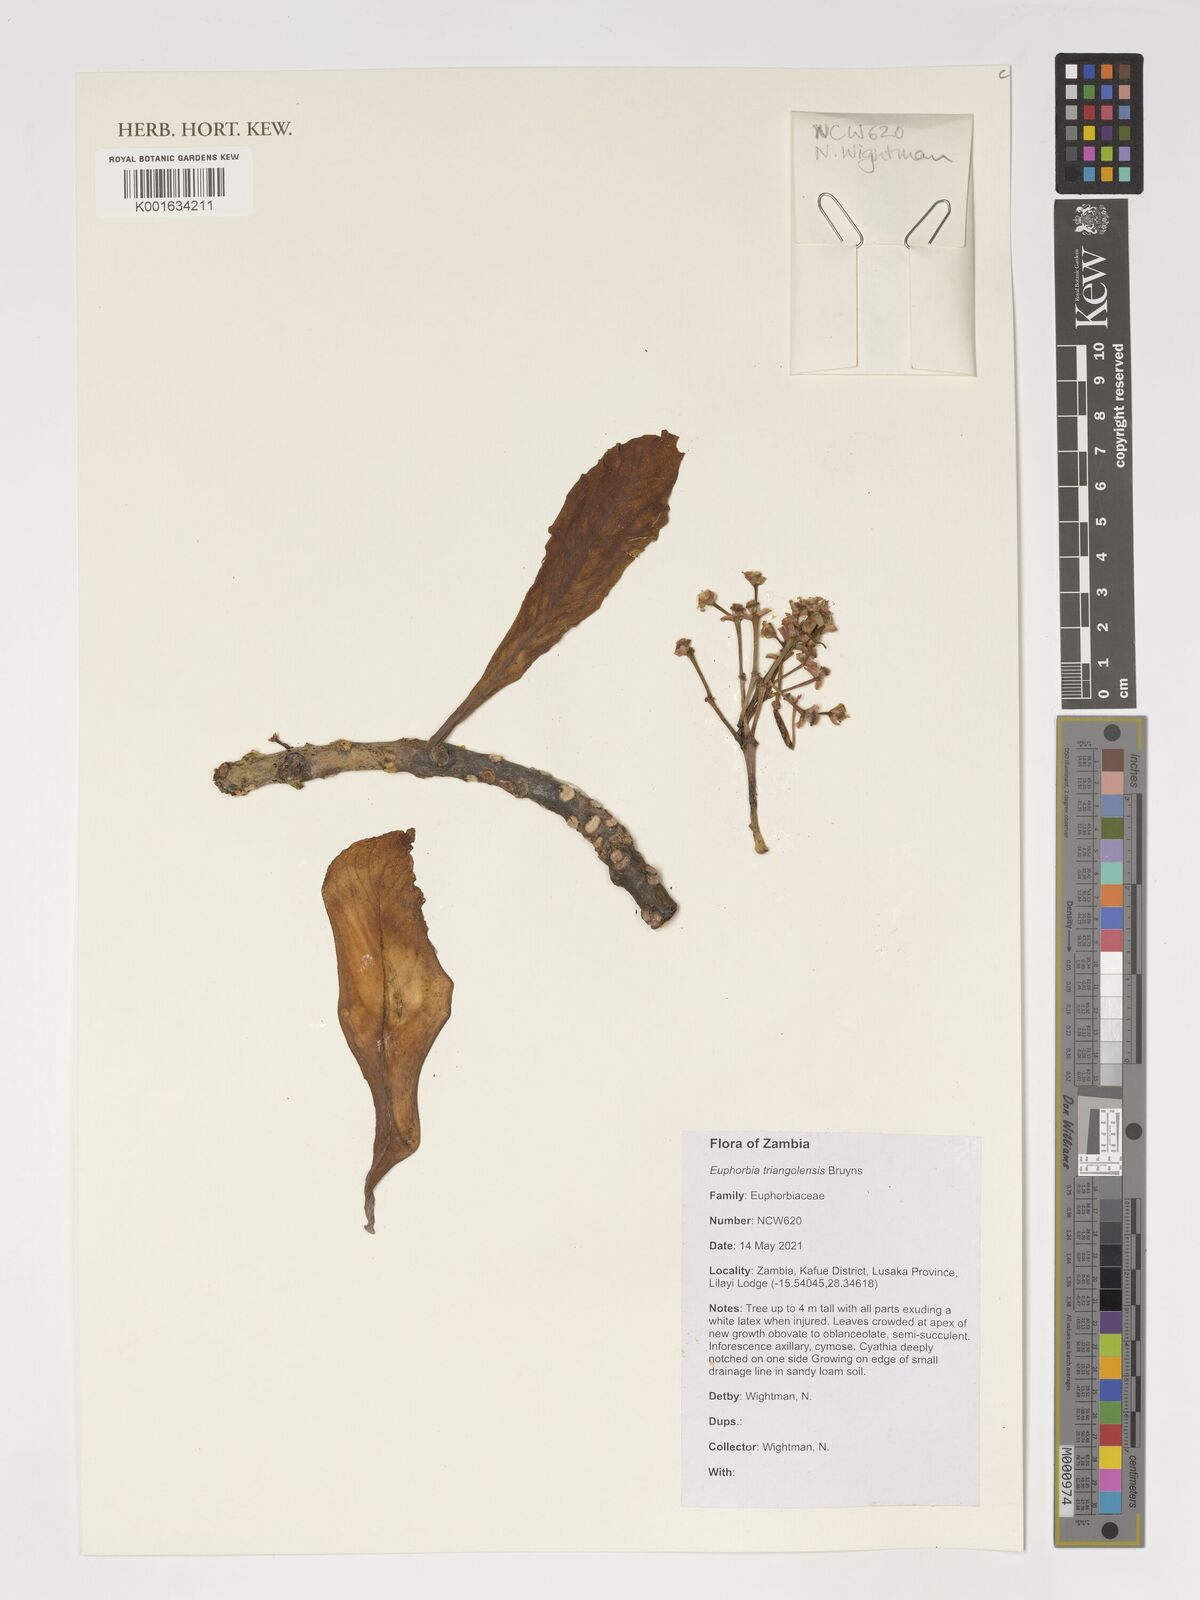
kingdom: Plantae
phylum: Tracheophyta
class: Magnoliopsida
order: Malpighiales
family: Euphorbiaceae
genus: Euphorbia
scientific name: Euphorbia triangolensis
